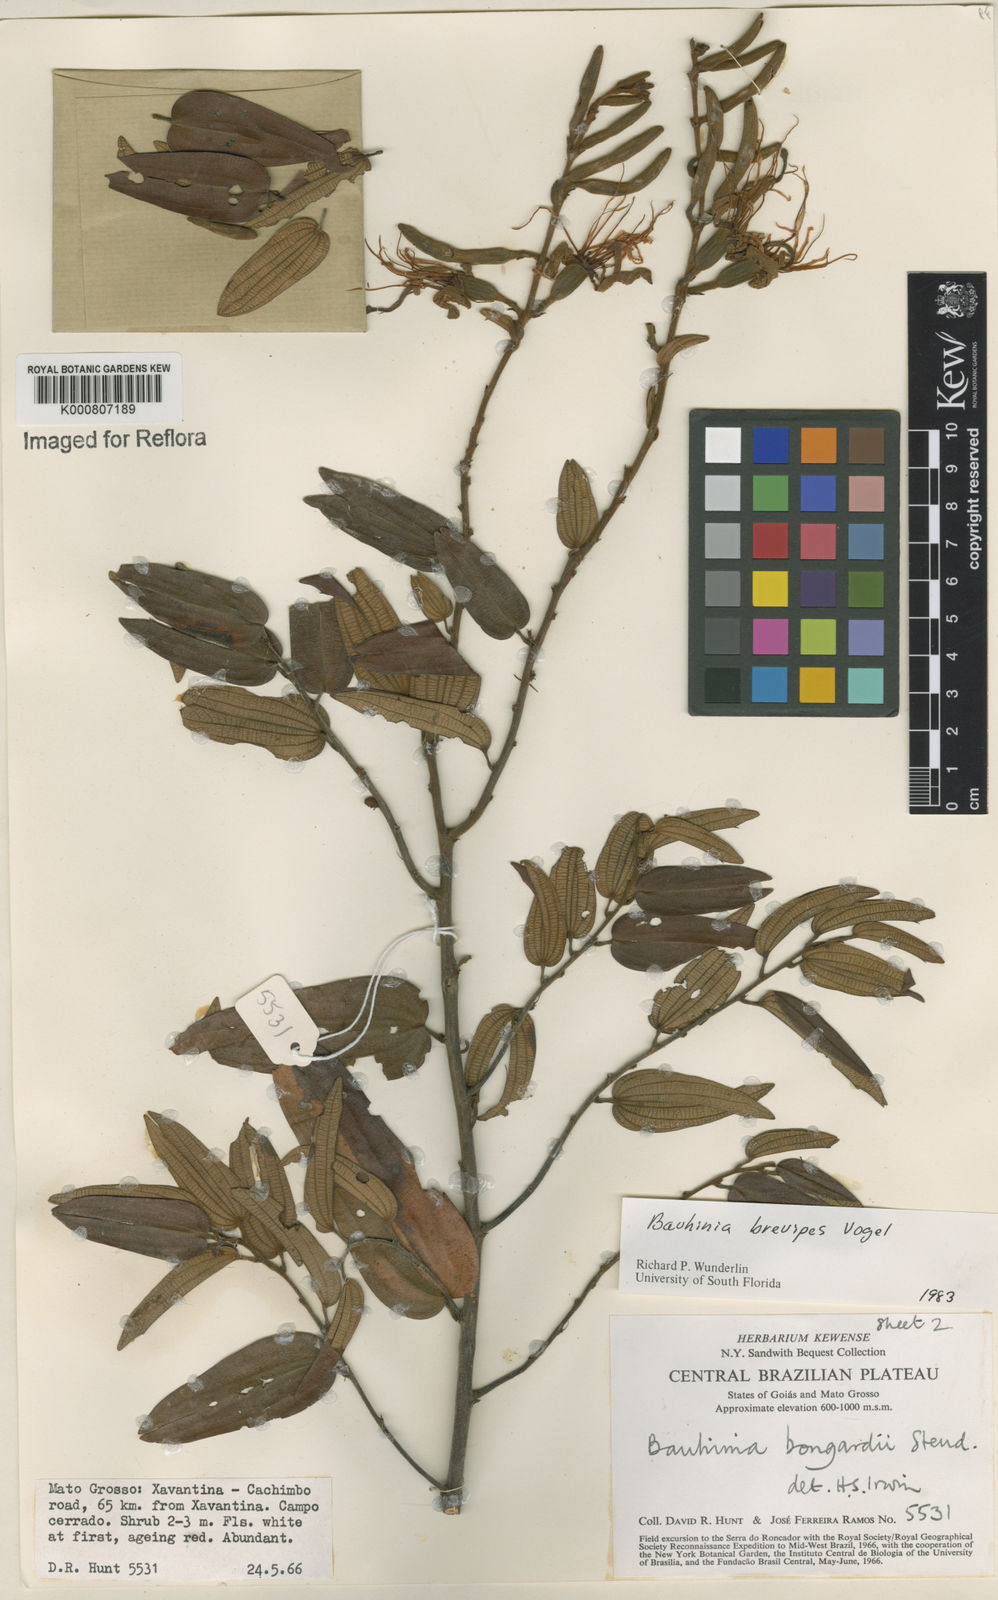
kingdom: Plantae
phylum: Tracheophyta
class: Magnoliopsida
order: Fabales
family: Fabaceae
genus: Bauhinia
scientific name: Bauhinia brevipes
